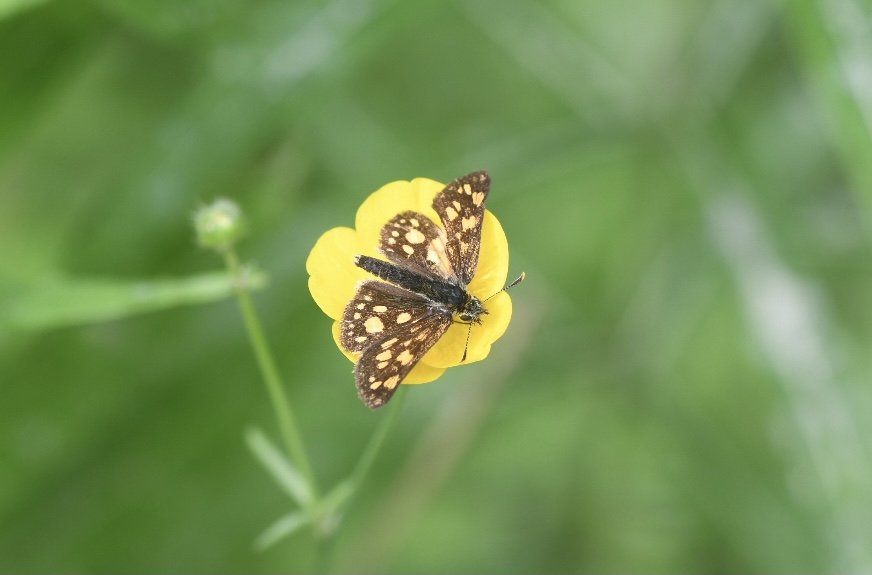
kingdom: Animalia
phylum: Arthropoda
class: Insecta
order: Lepidoptera
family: Hesperiidae
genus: Carterocephalus
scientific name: Carterocephalus palaemon
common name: Chequered Skipper
